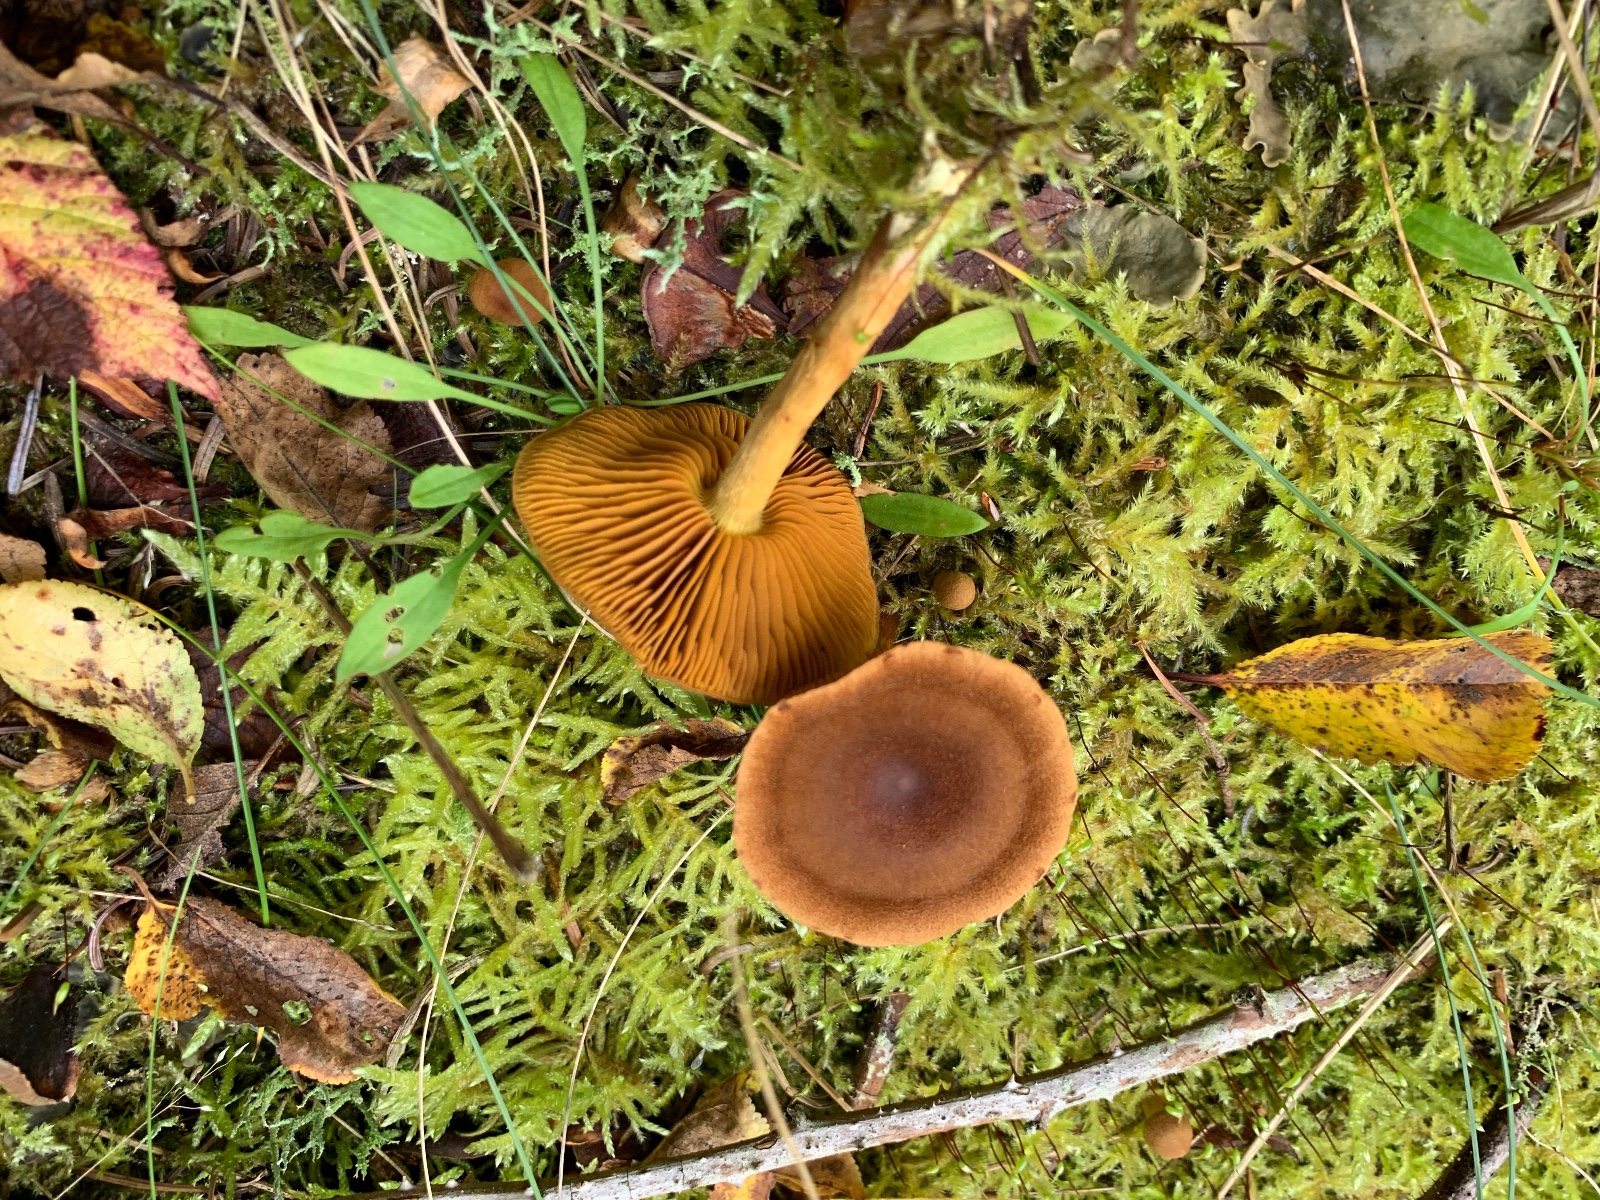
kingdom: Fungi
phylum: Basidiomycota
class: Agaricomycetes
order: Agaricales
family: Cortinariaceae
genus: Cortinarius
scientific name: Cortinarius malicorius
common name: grønkødet slørhat
